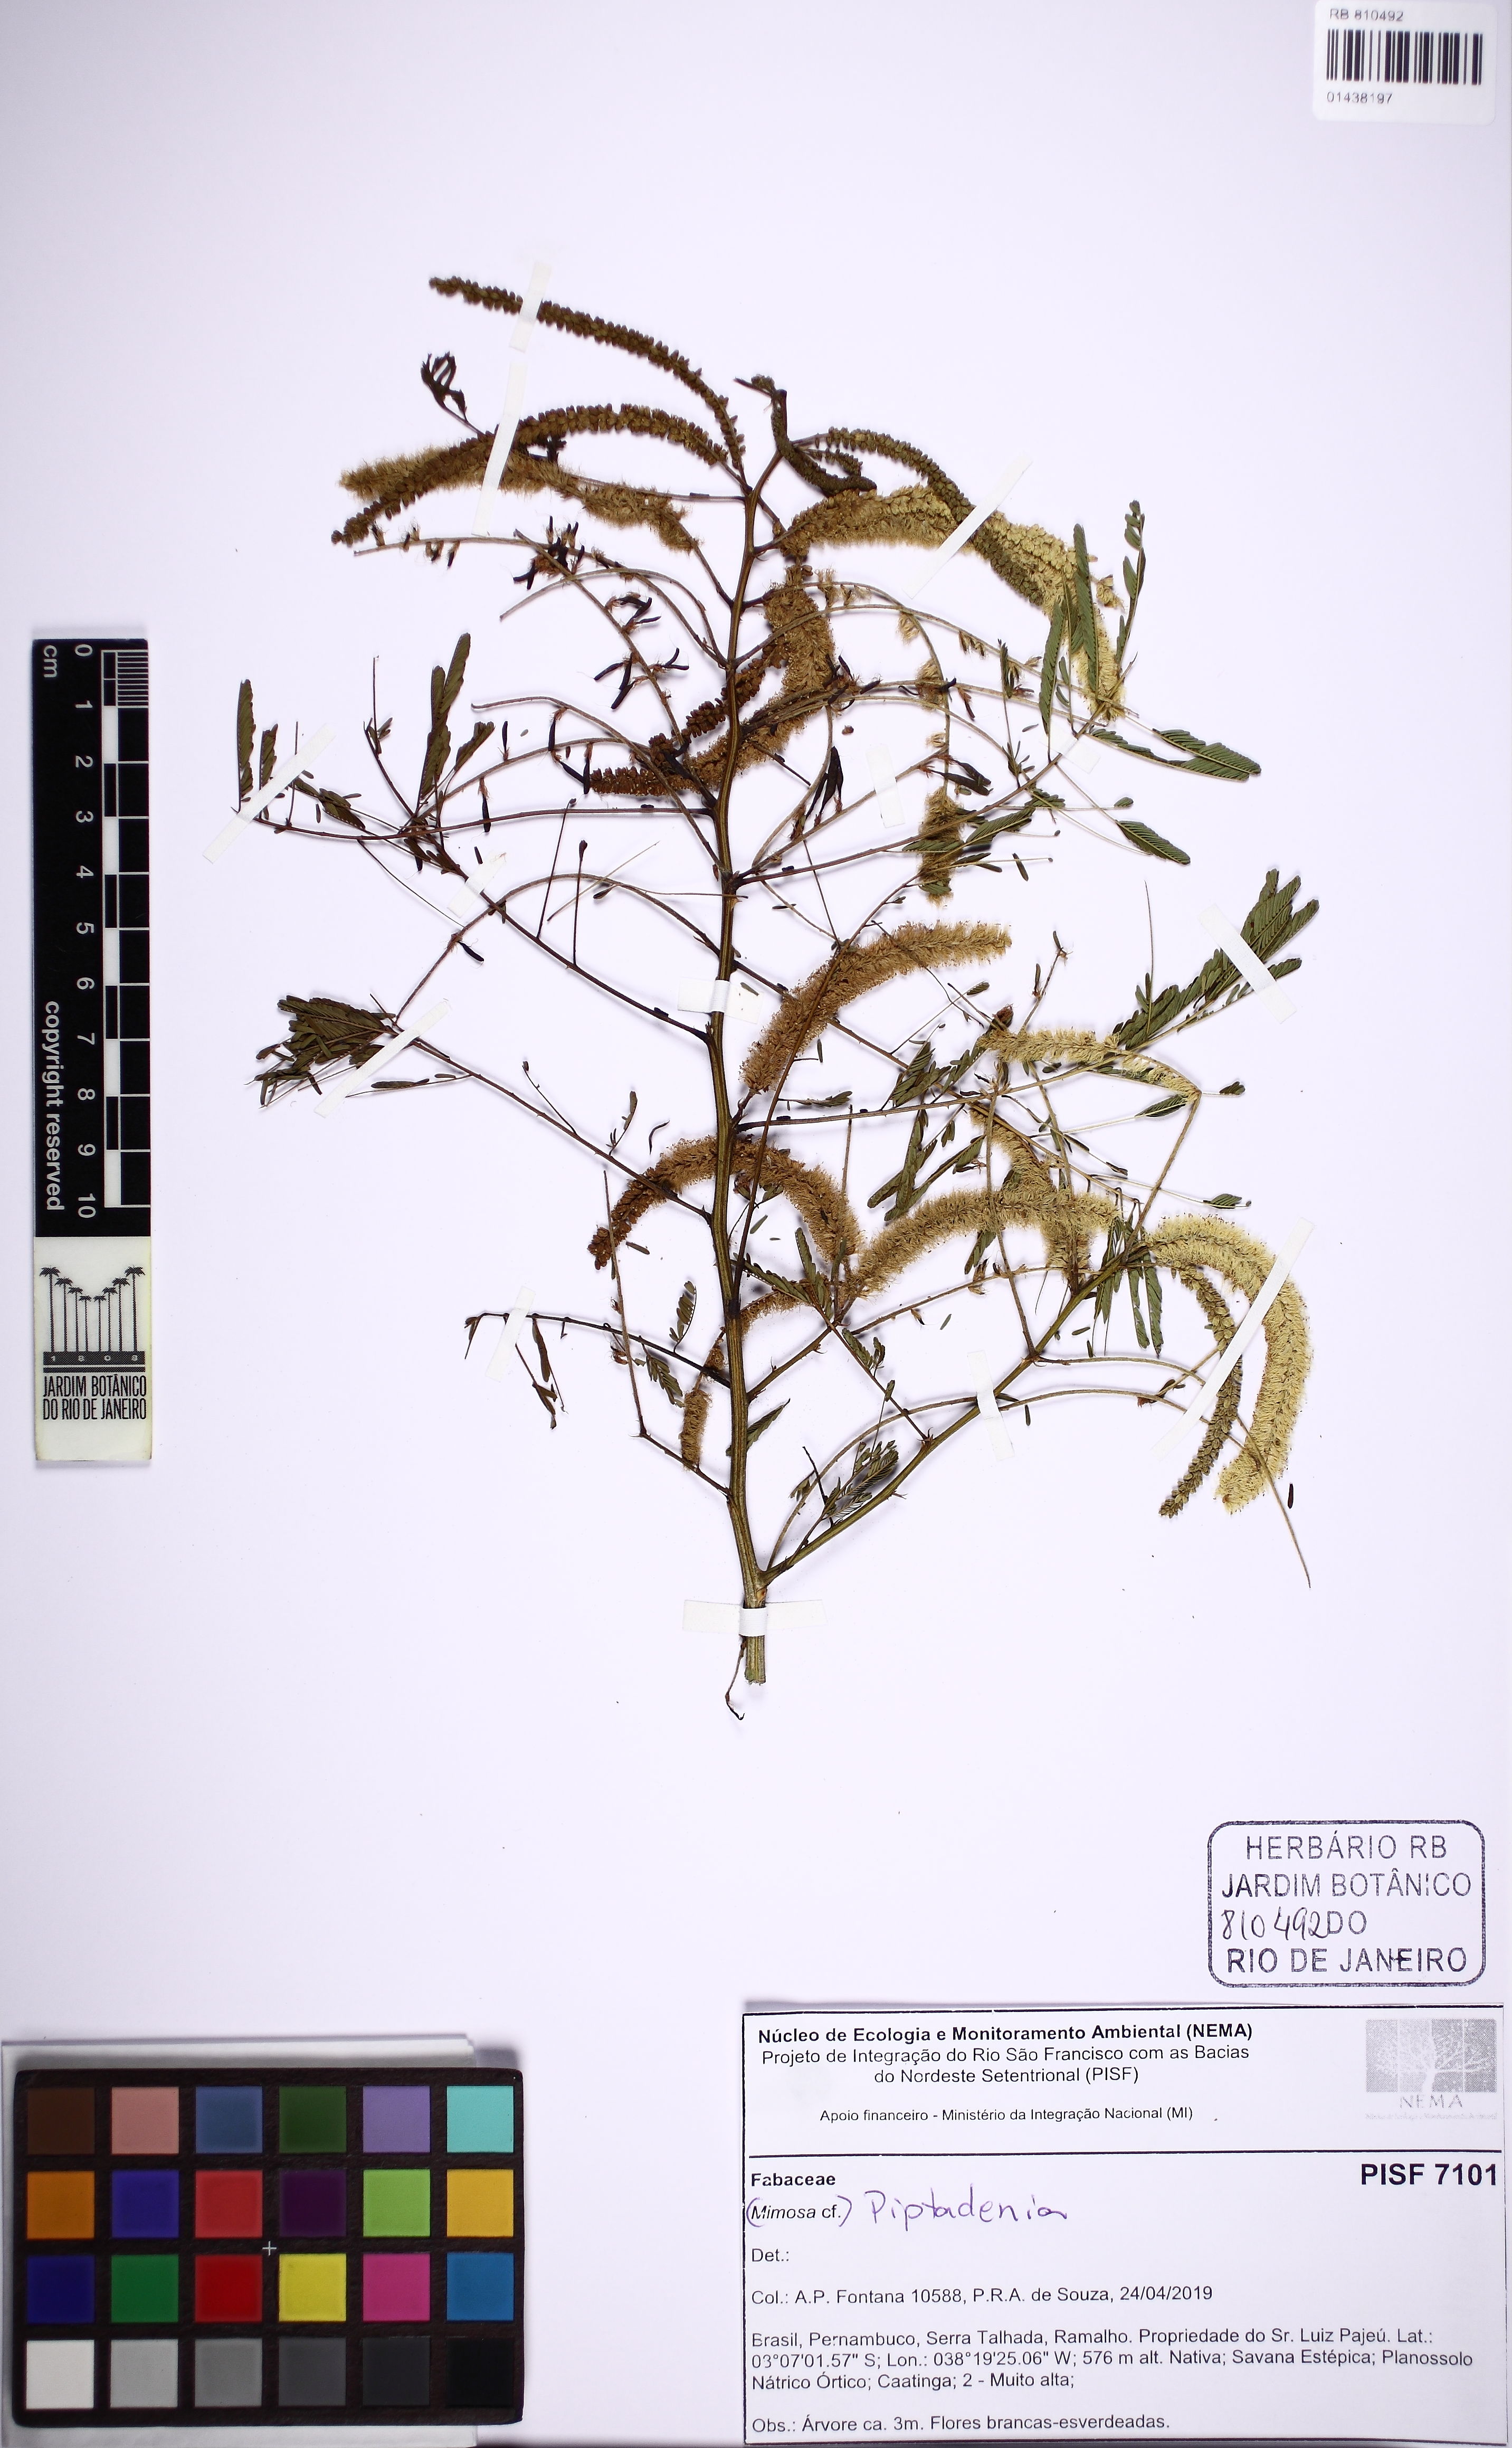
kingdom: Plantae
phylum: Tracheophyta
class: Magnoliopsida
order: Fabales
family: Fabaceae
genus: Piptadenia
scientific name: Piptadenia
